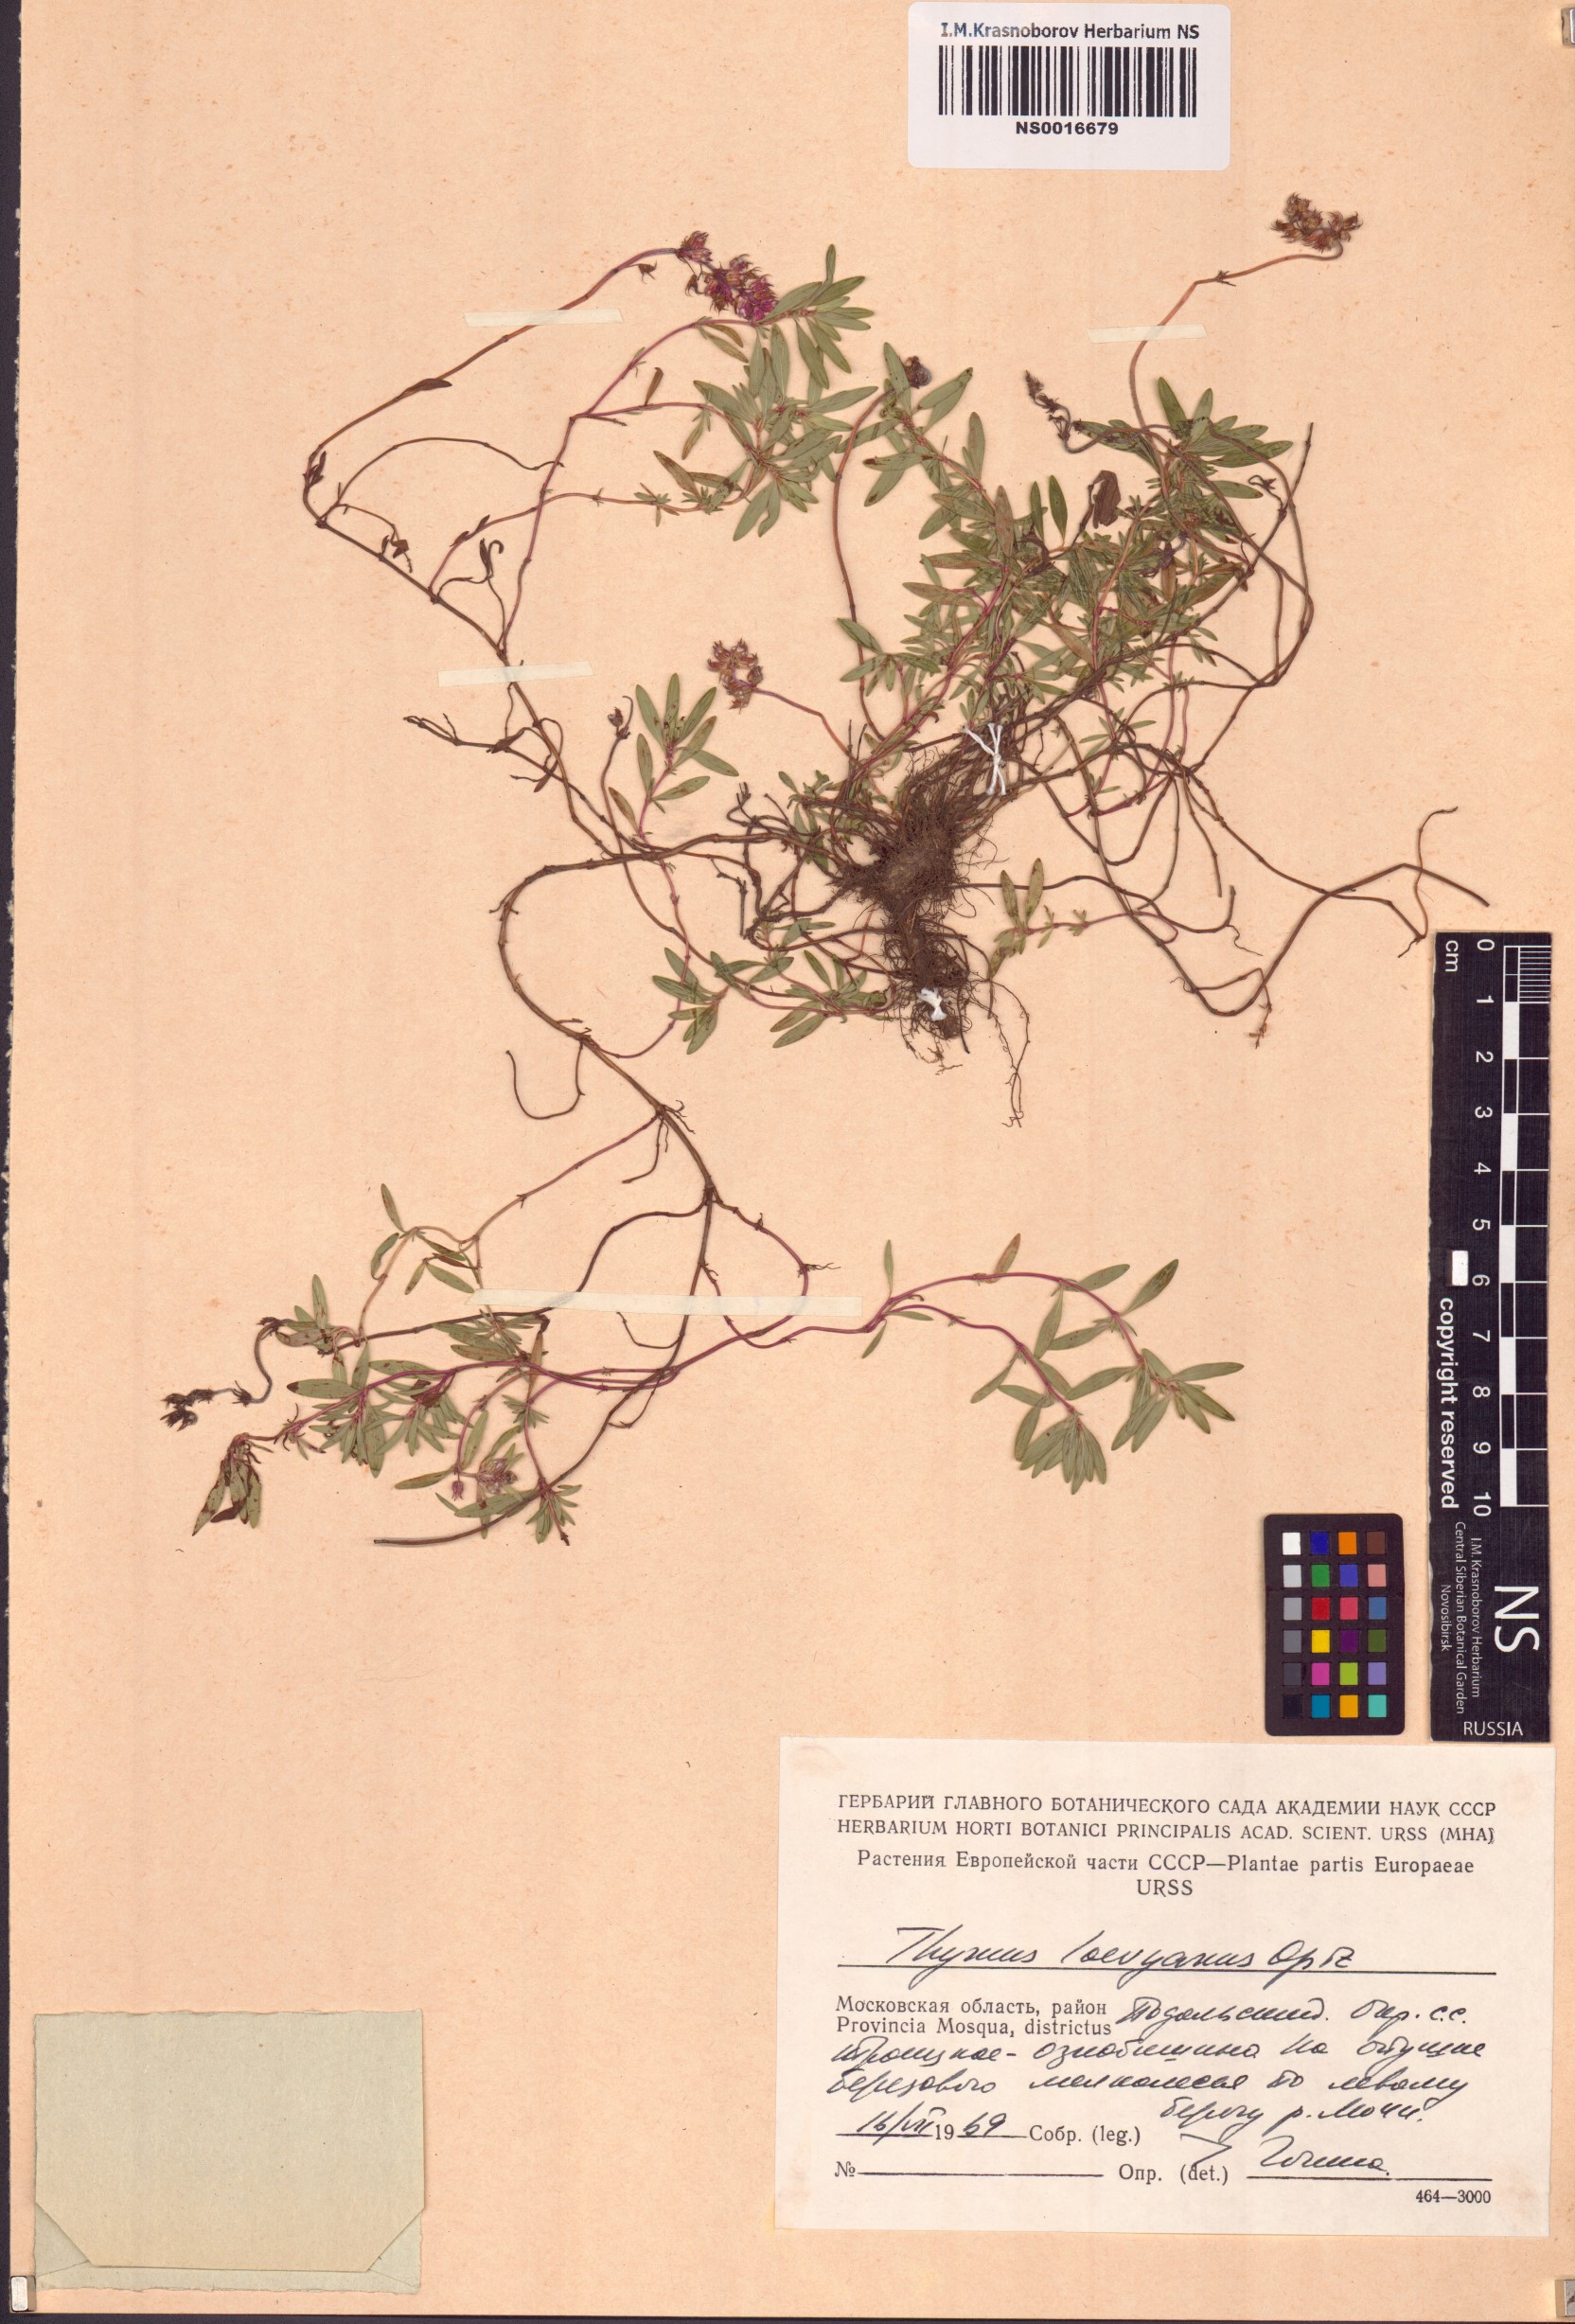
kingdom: Plantae
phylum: Tracheophyta
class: Magnoliopsida
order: Lamiales
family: Lamiaceae
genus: Thymus
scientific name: Thymus odoratissimus
